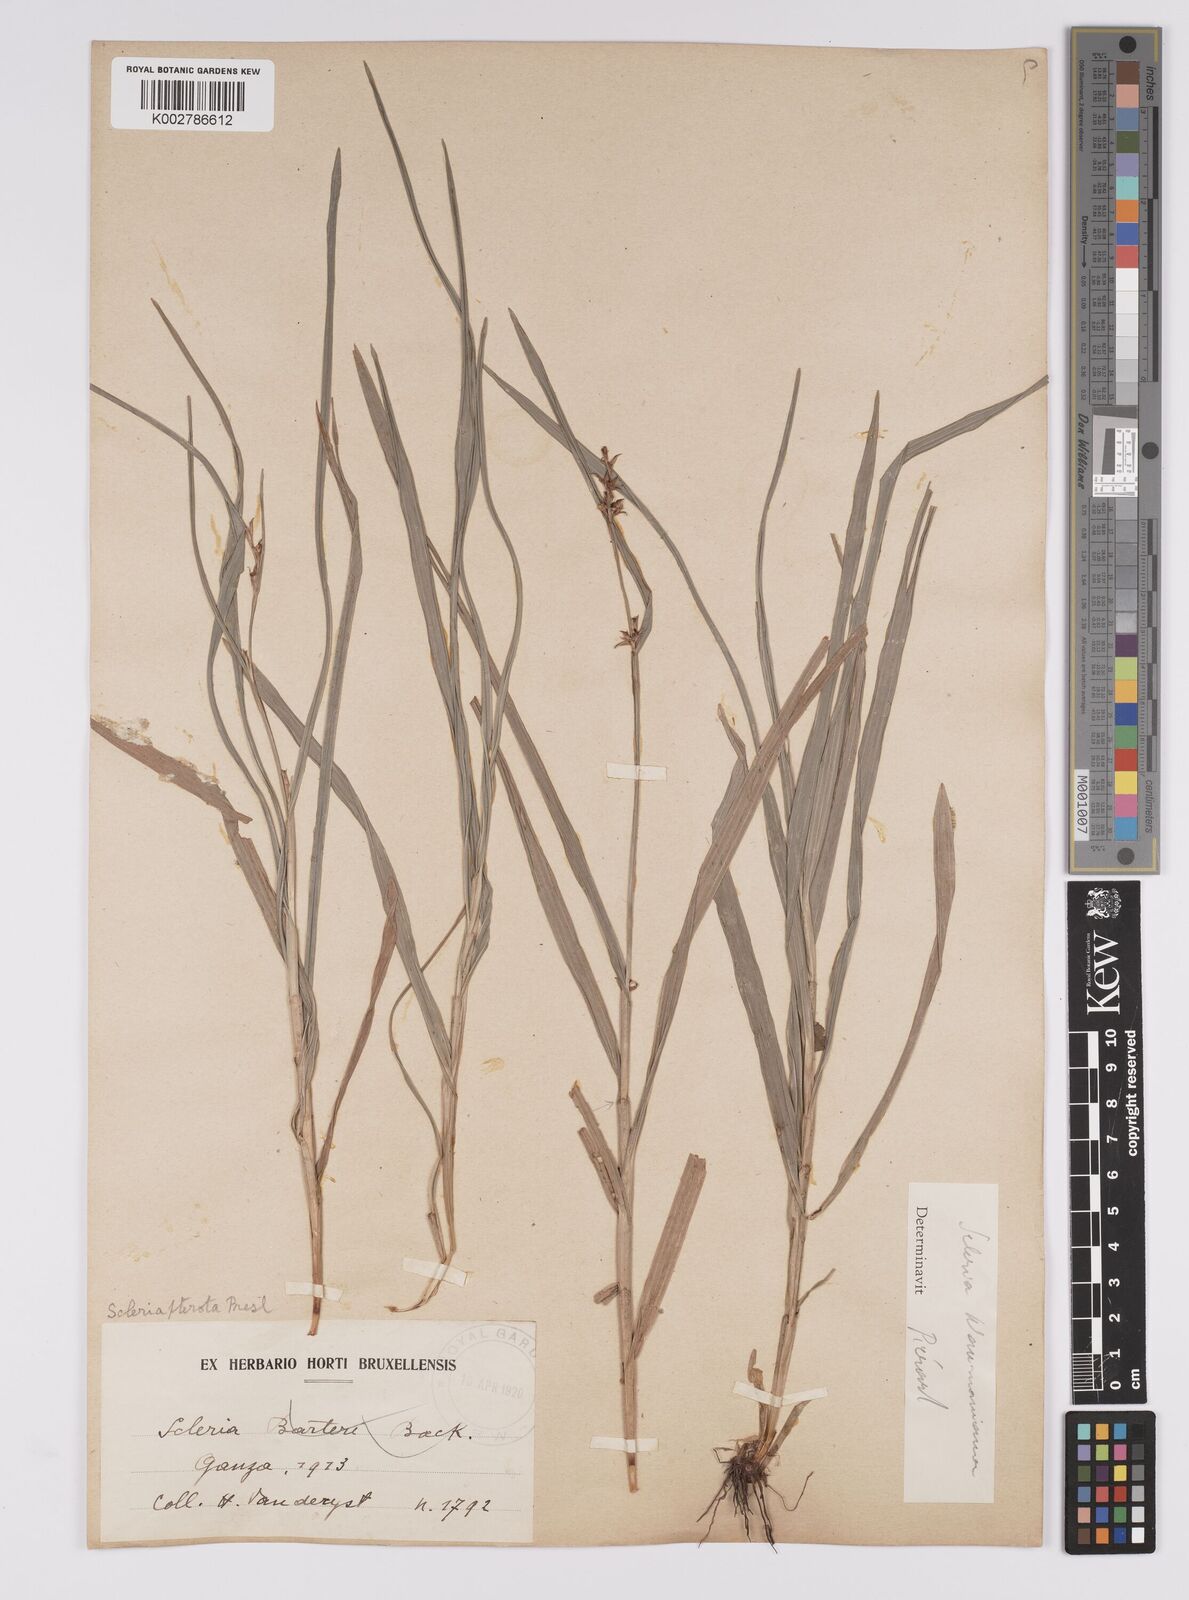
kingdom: Plantae
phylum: Tracheophyta
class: Liliopsida
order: Poales
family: Cyperaceae
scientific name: Cyperaceae
